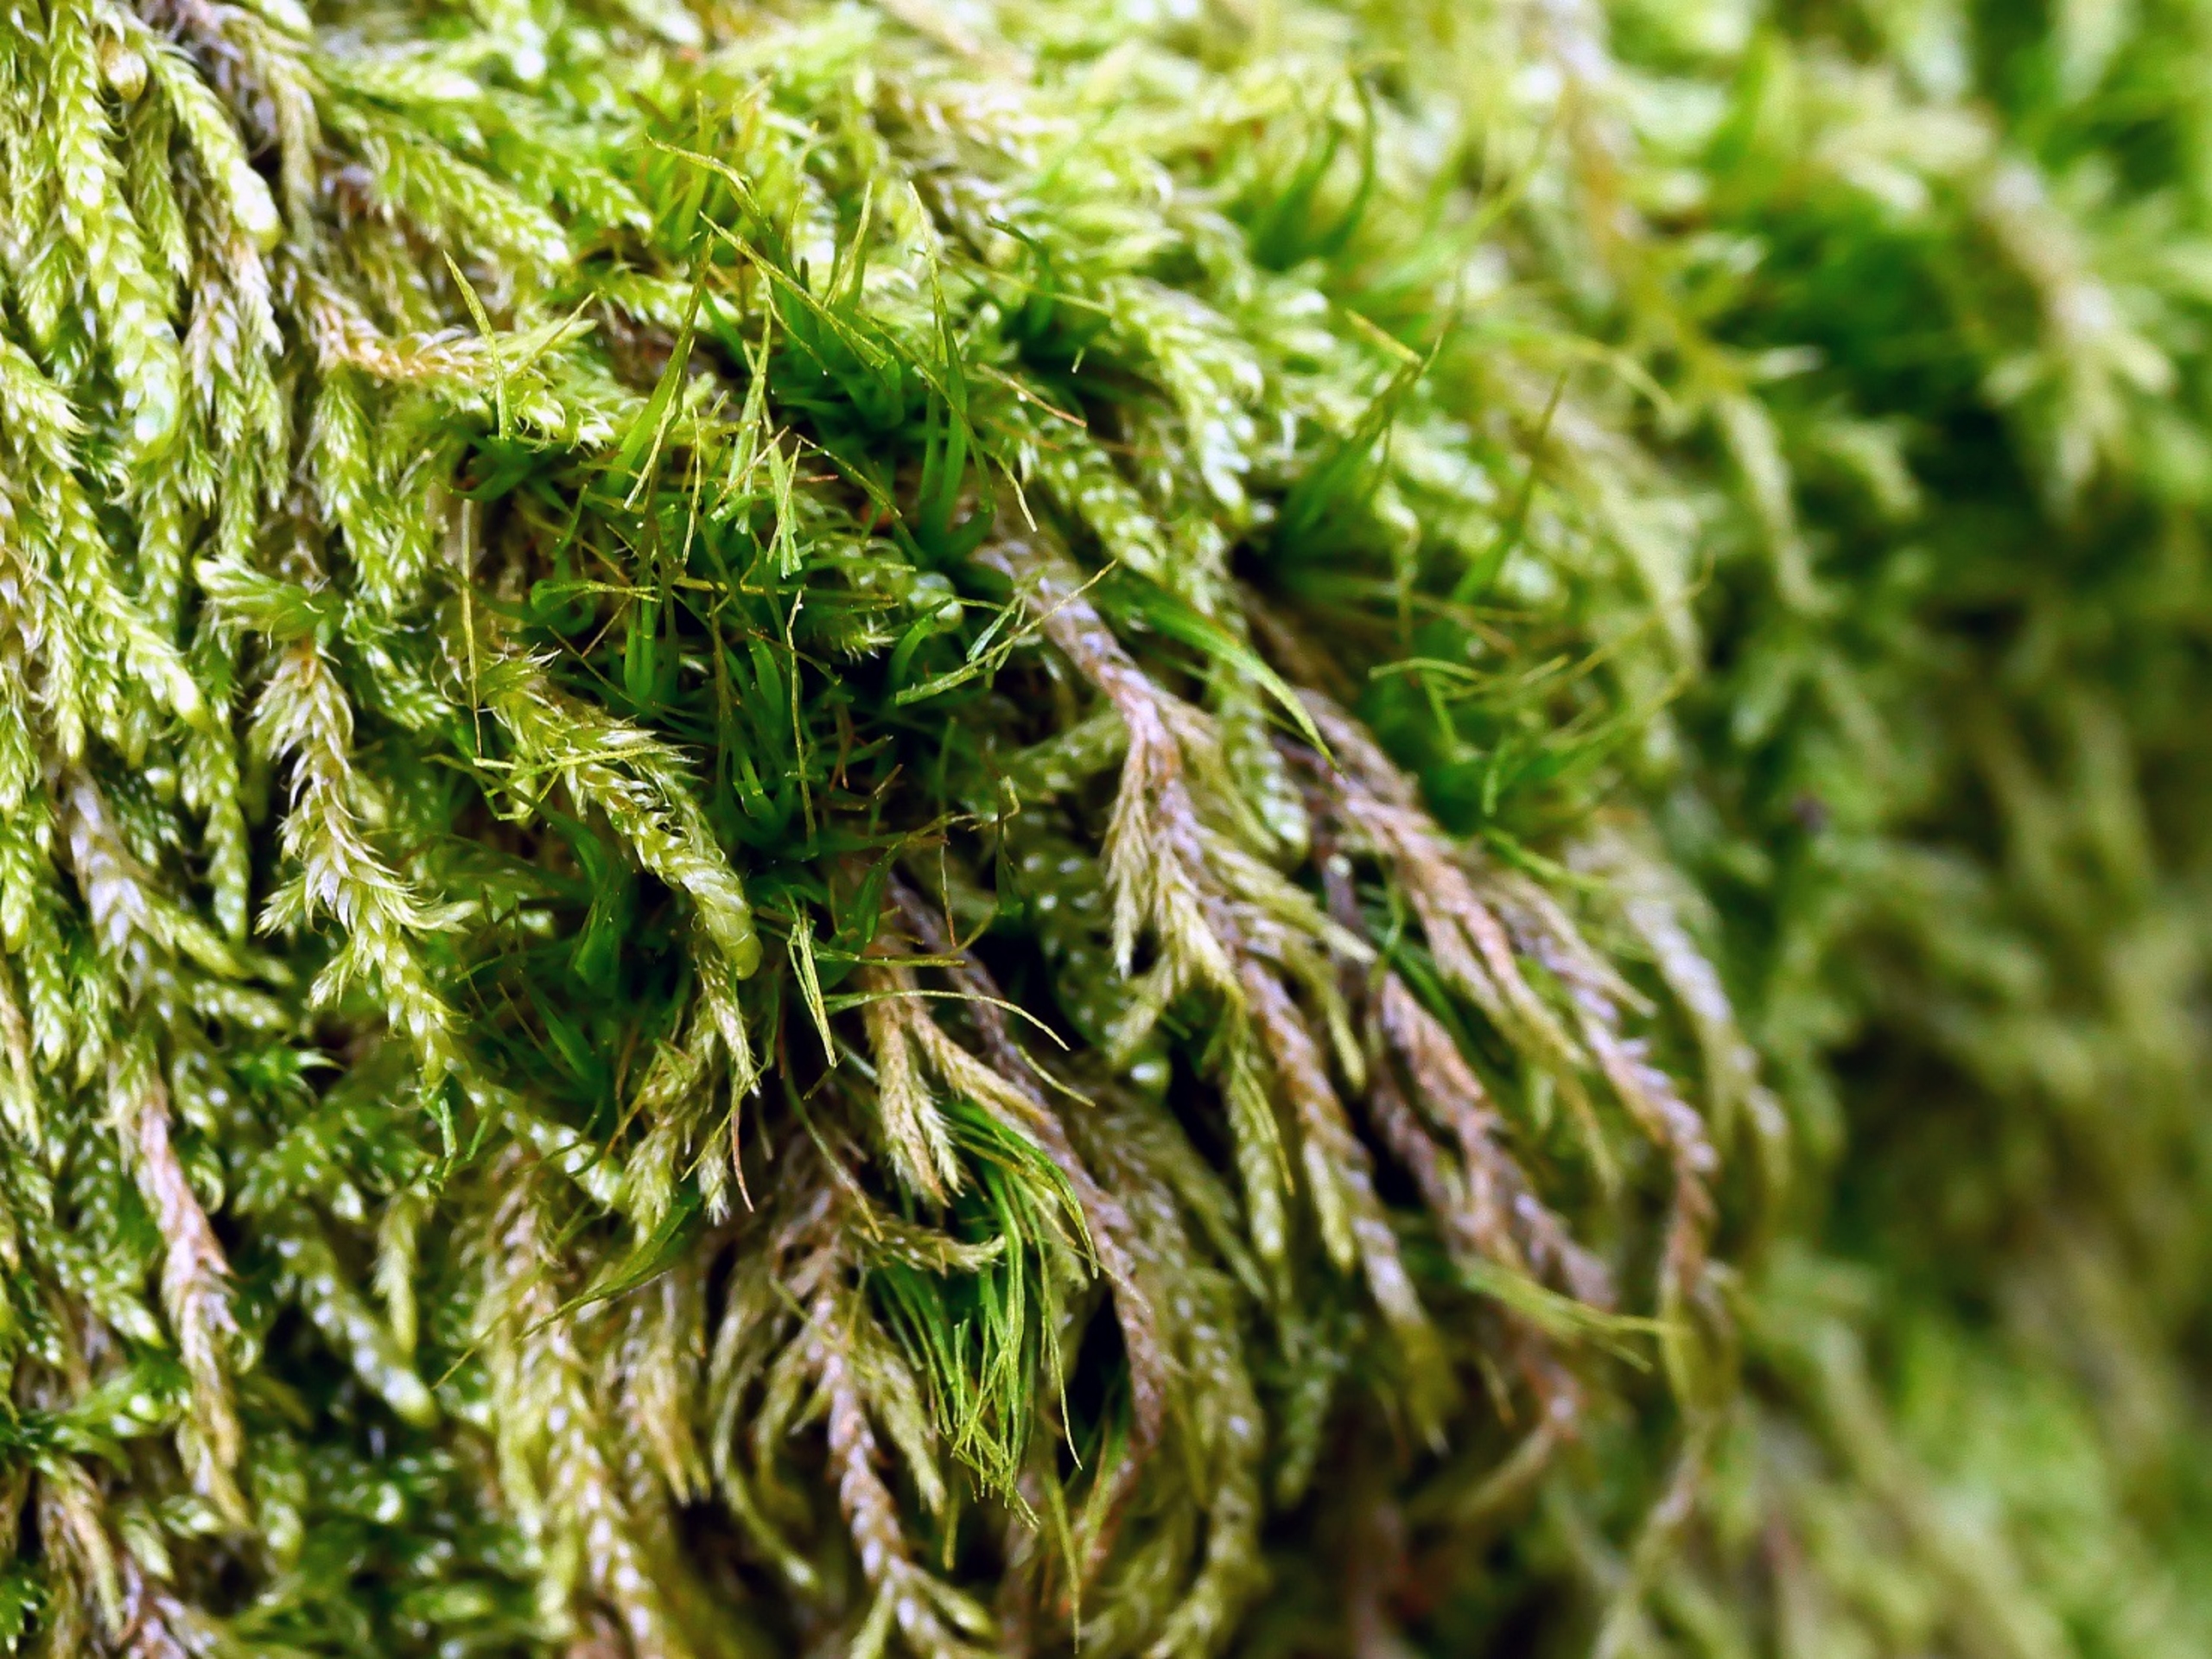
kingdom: Plantae
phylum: Bryophyta
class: Bryopsida
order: Dicranales
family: Dicranaceae
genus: Orthodicranum
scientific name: Orthodicranum tauricum
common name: Skør tyndvinge
